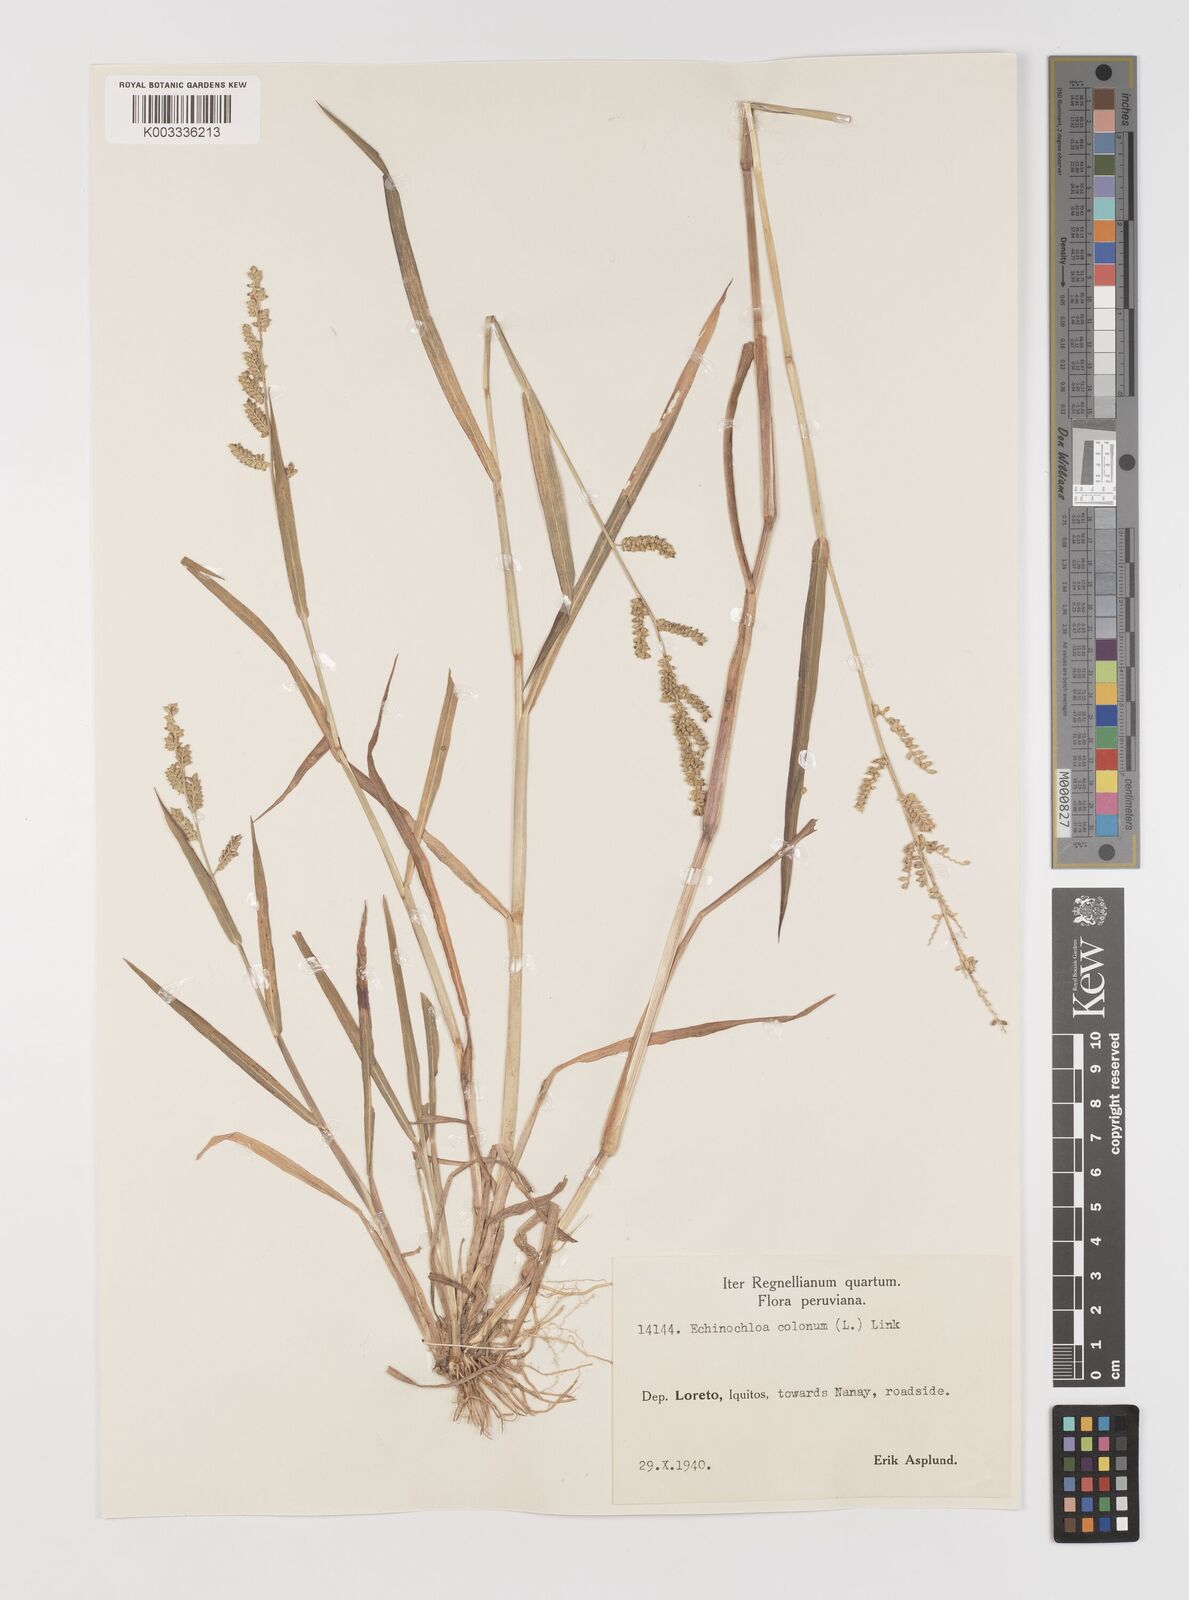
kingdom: Plantae
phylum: Tracheophyta
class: Liliopsida
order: Poales
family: Poaceae
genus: Echinochloa
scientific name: Echinochloa colonum
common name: Jungle rice
